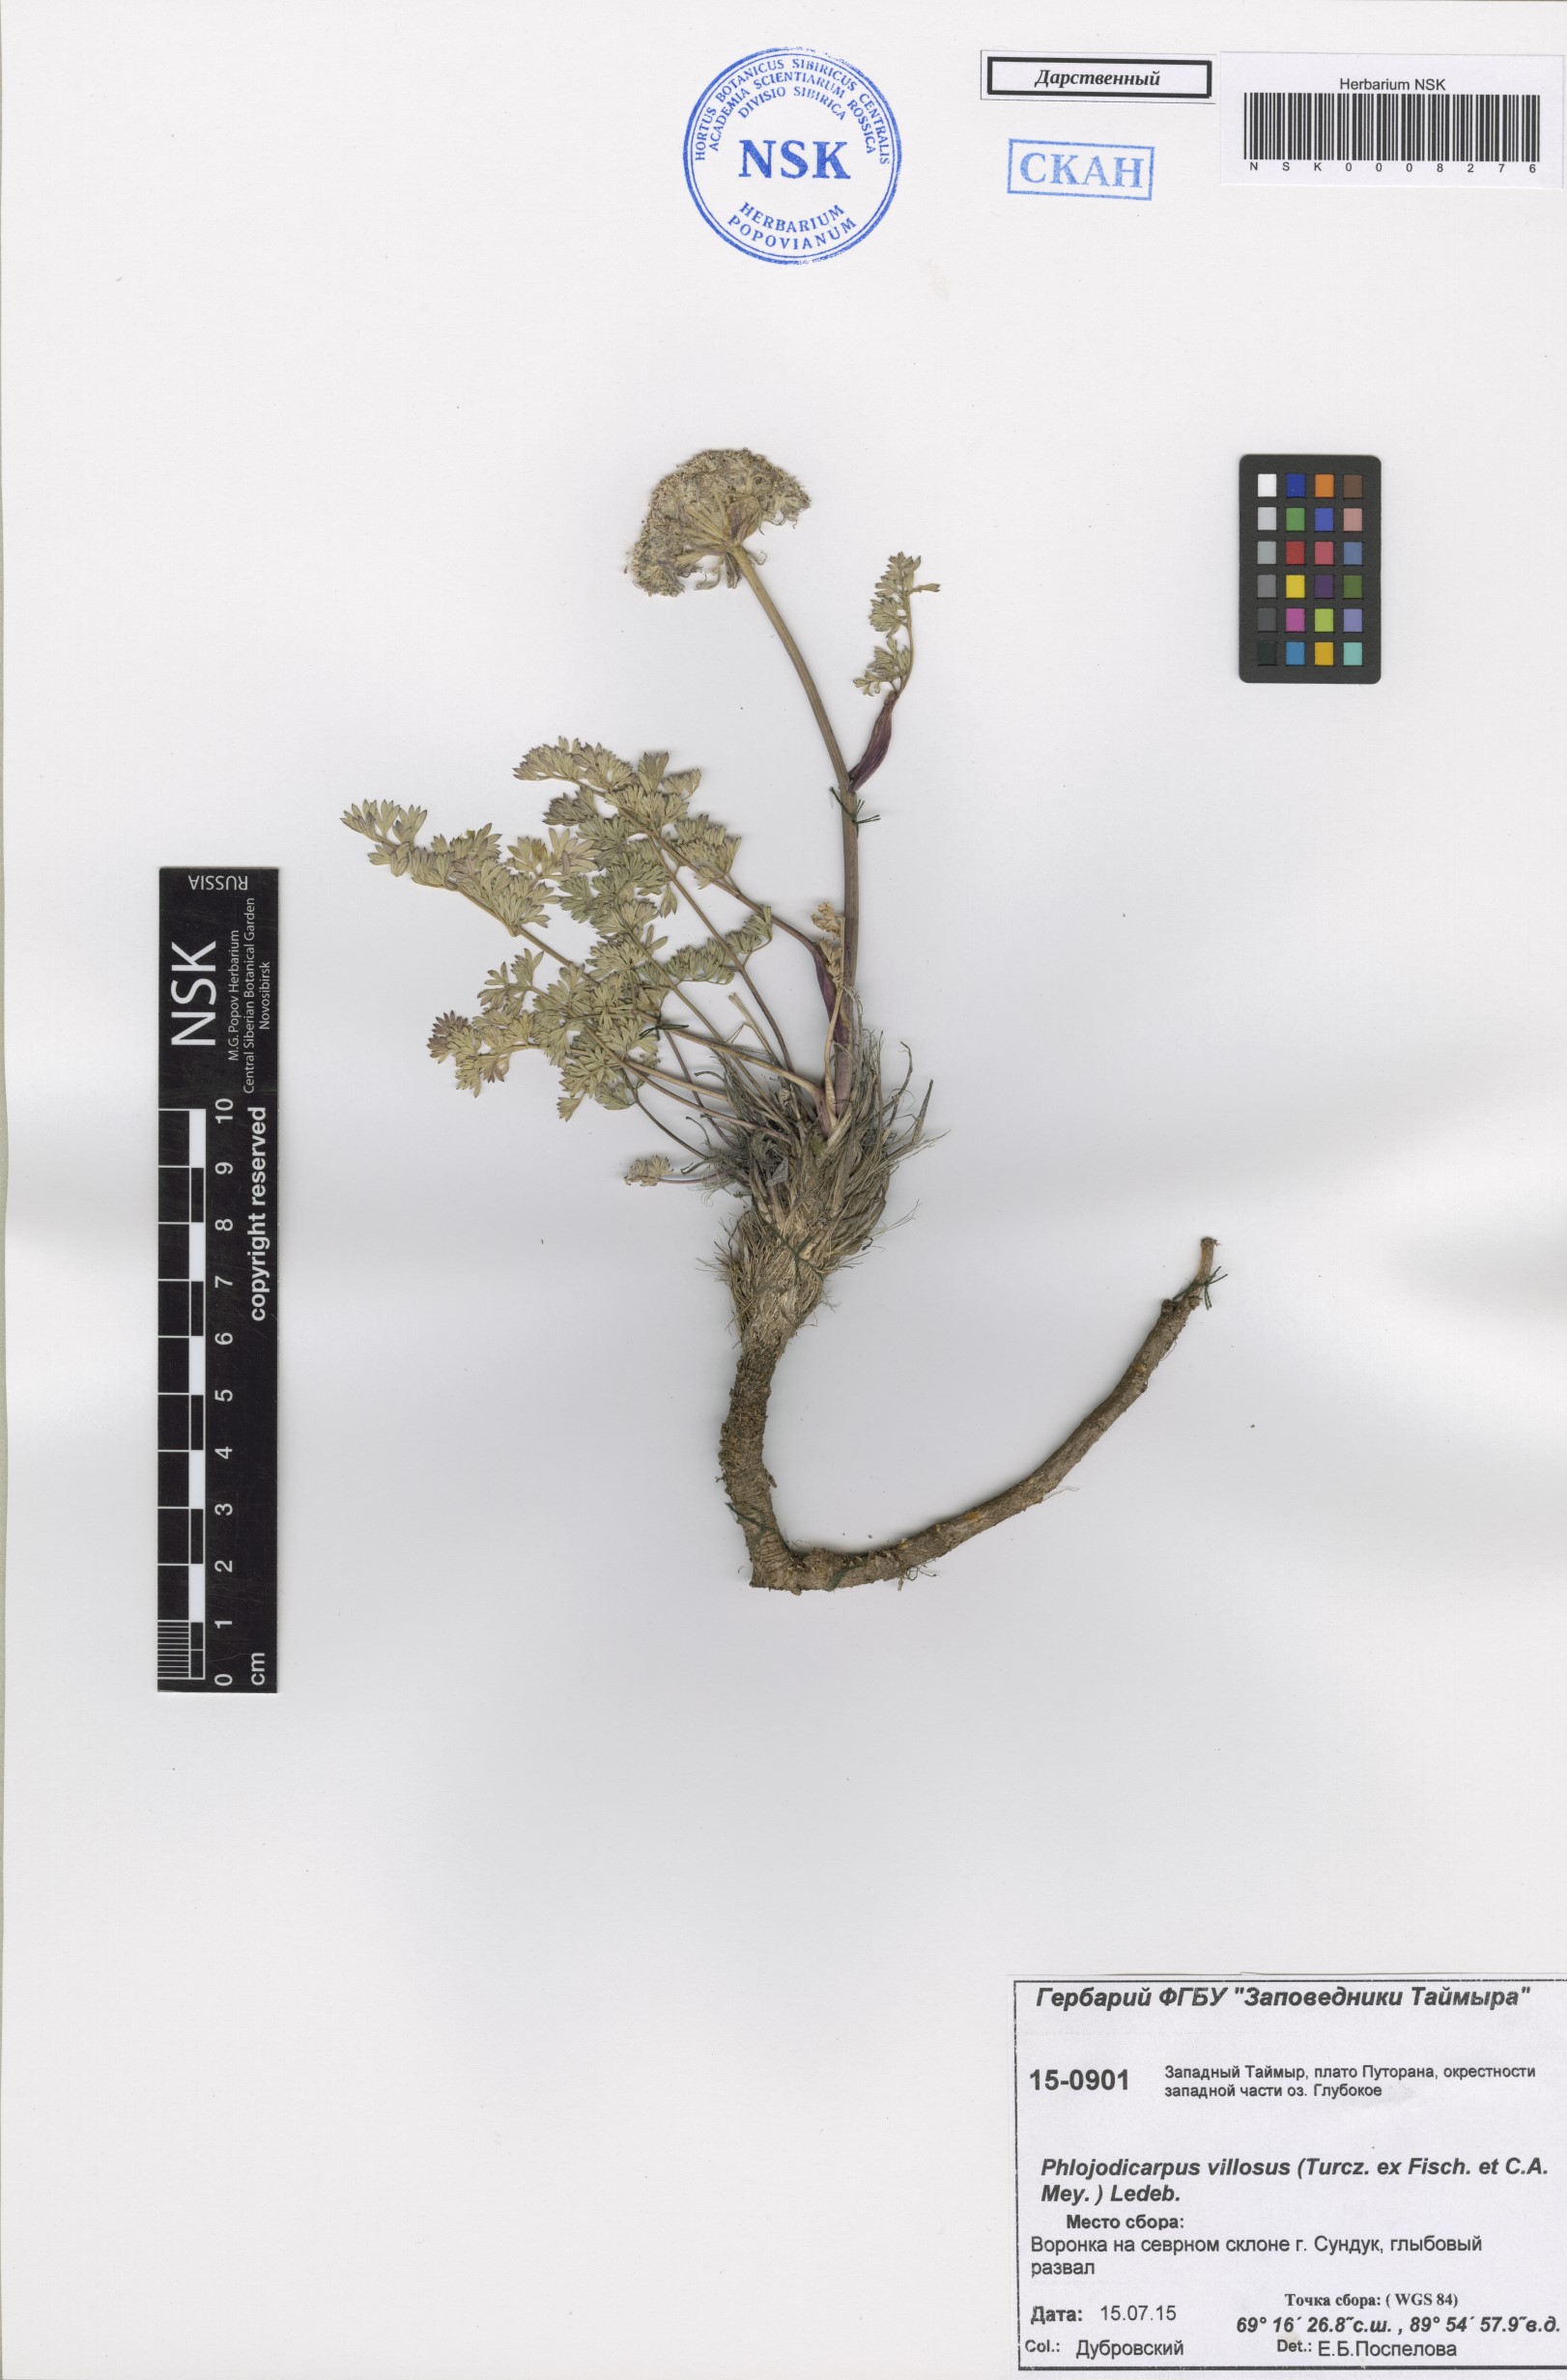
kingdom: Plantae
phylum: Tracheophyta
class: Magnoliopsida
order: Apiales
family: Apiaceae
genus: Phlojodicarpus
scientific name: Phlojodicarpus villosus
